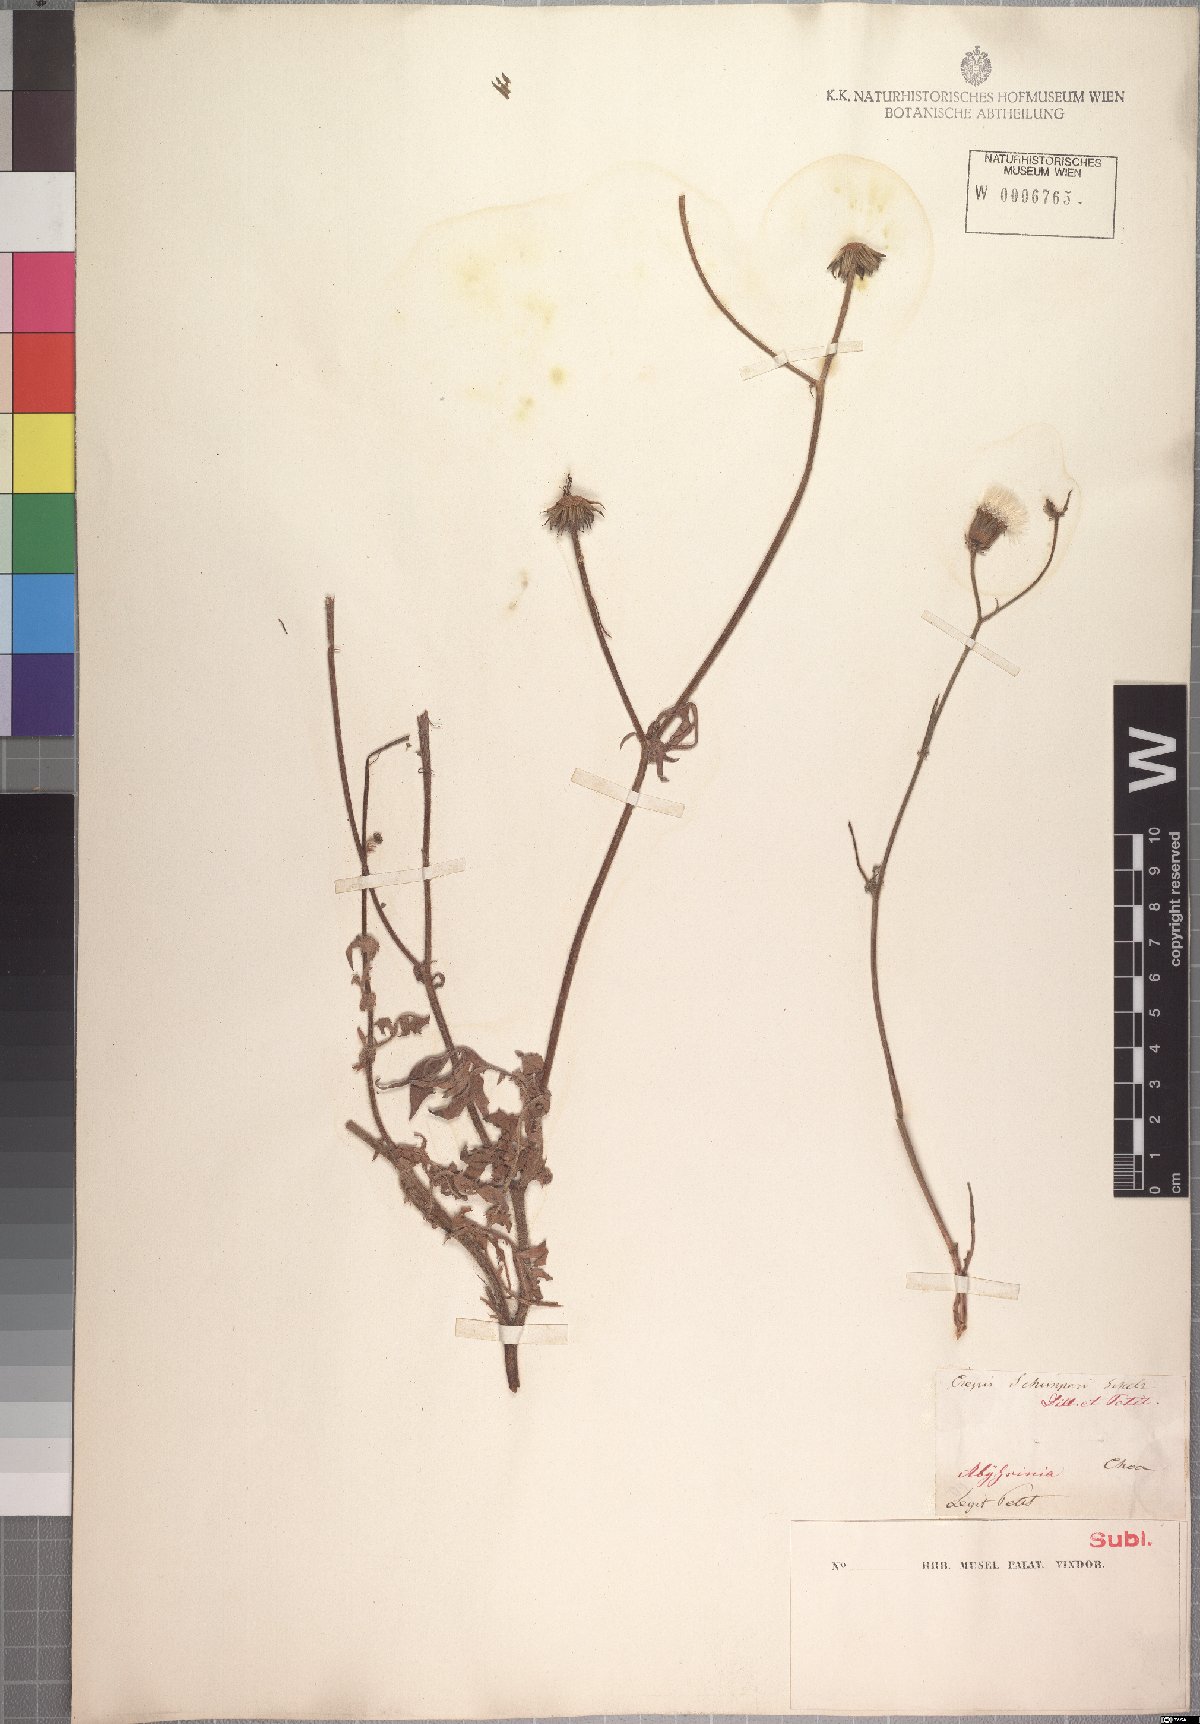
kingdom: Plantae
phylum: Tracheophyta
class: Magnoliopsida
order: Asterales
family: Asteraceae
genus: Crepis
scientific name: Crepis foetida
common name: Stinking hawk's-beard
